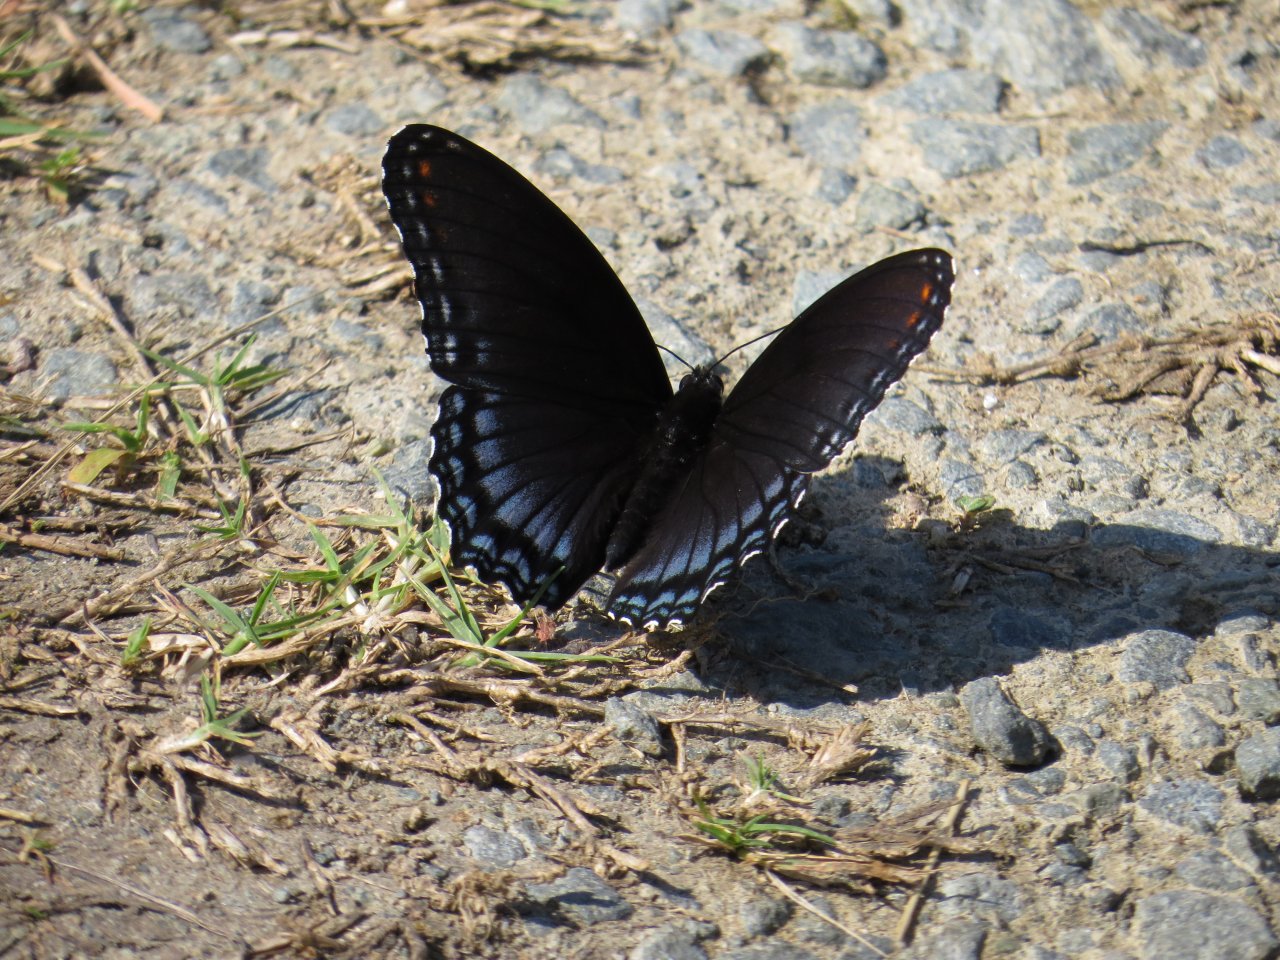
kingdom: Animalia
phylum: Arthropoda
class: Insecta
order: Lepidoptera
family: Nymphalidae
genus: Limenitis
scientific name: Limenitis astyanax
